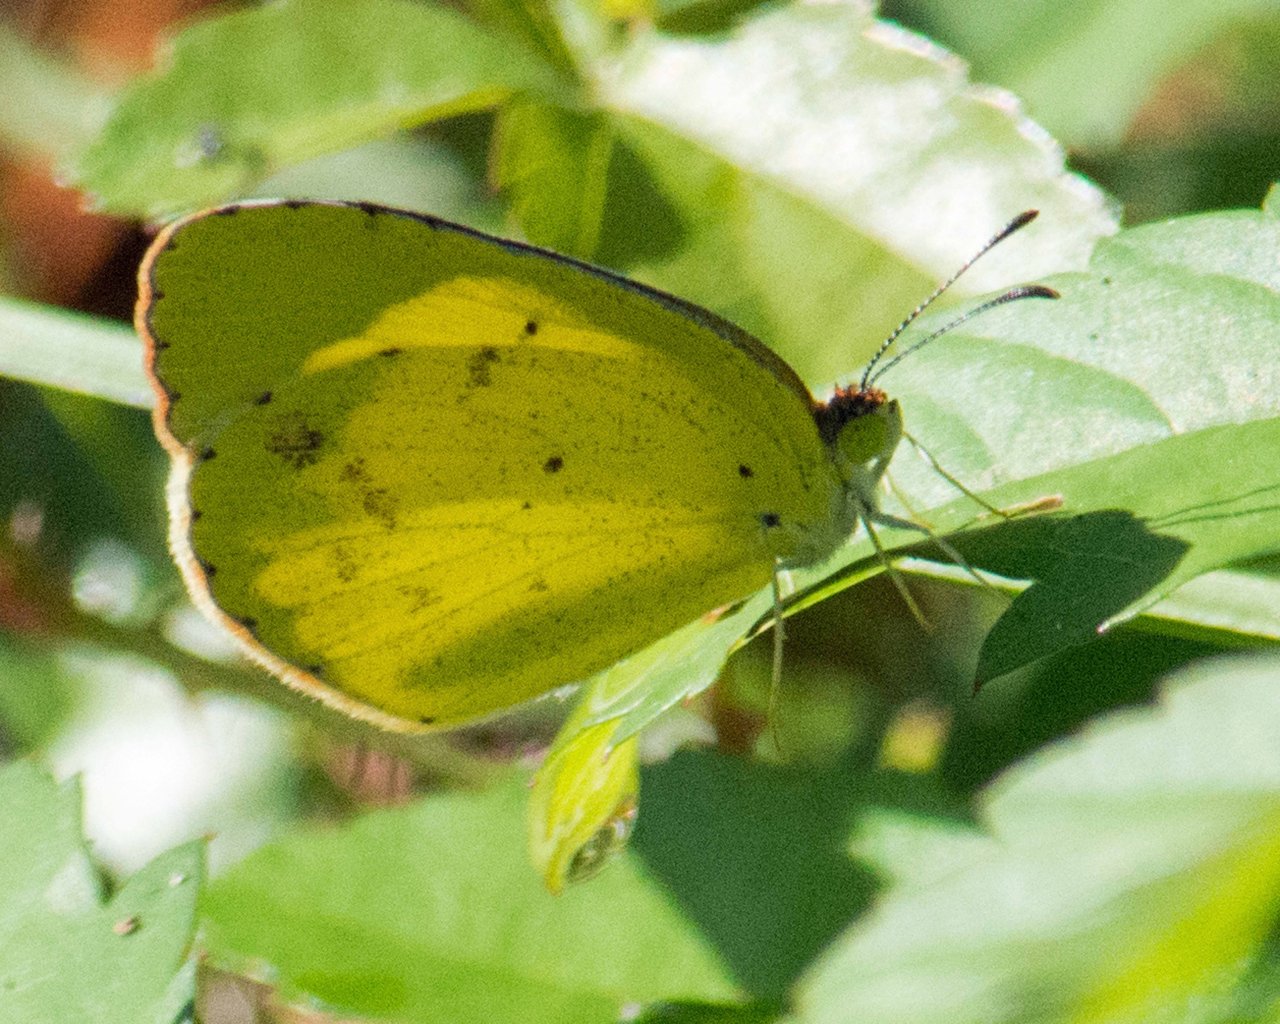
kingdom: Animalia
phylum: Arthropoda
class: Insecta
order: Lepidoptera
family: Pieridae
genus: Pyrisitia
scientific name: Pyrisitia lisa
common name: Little Yellow
